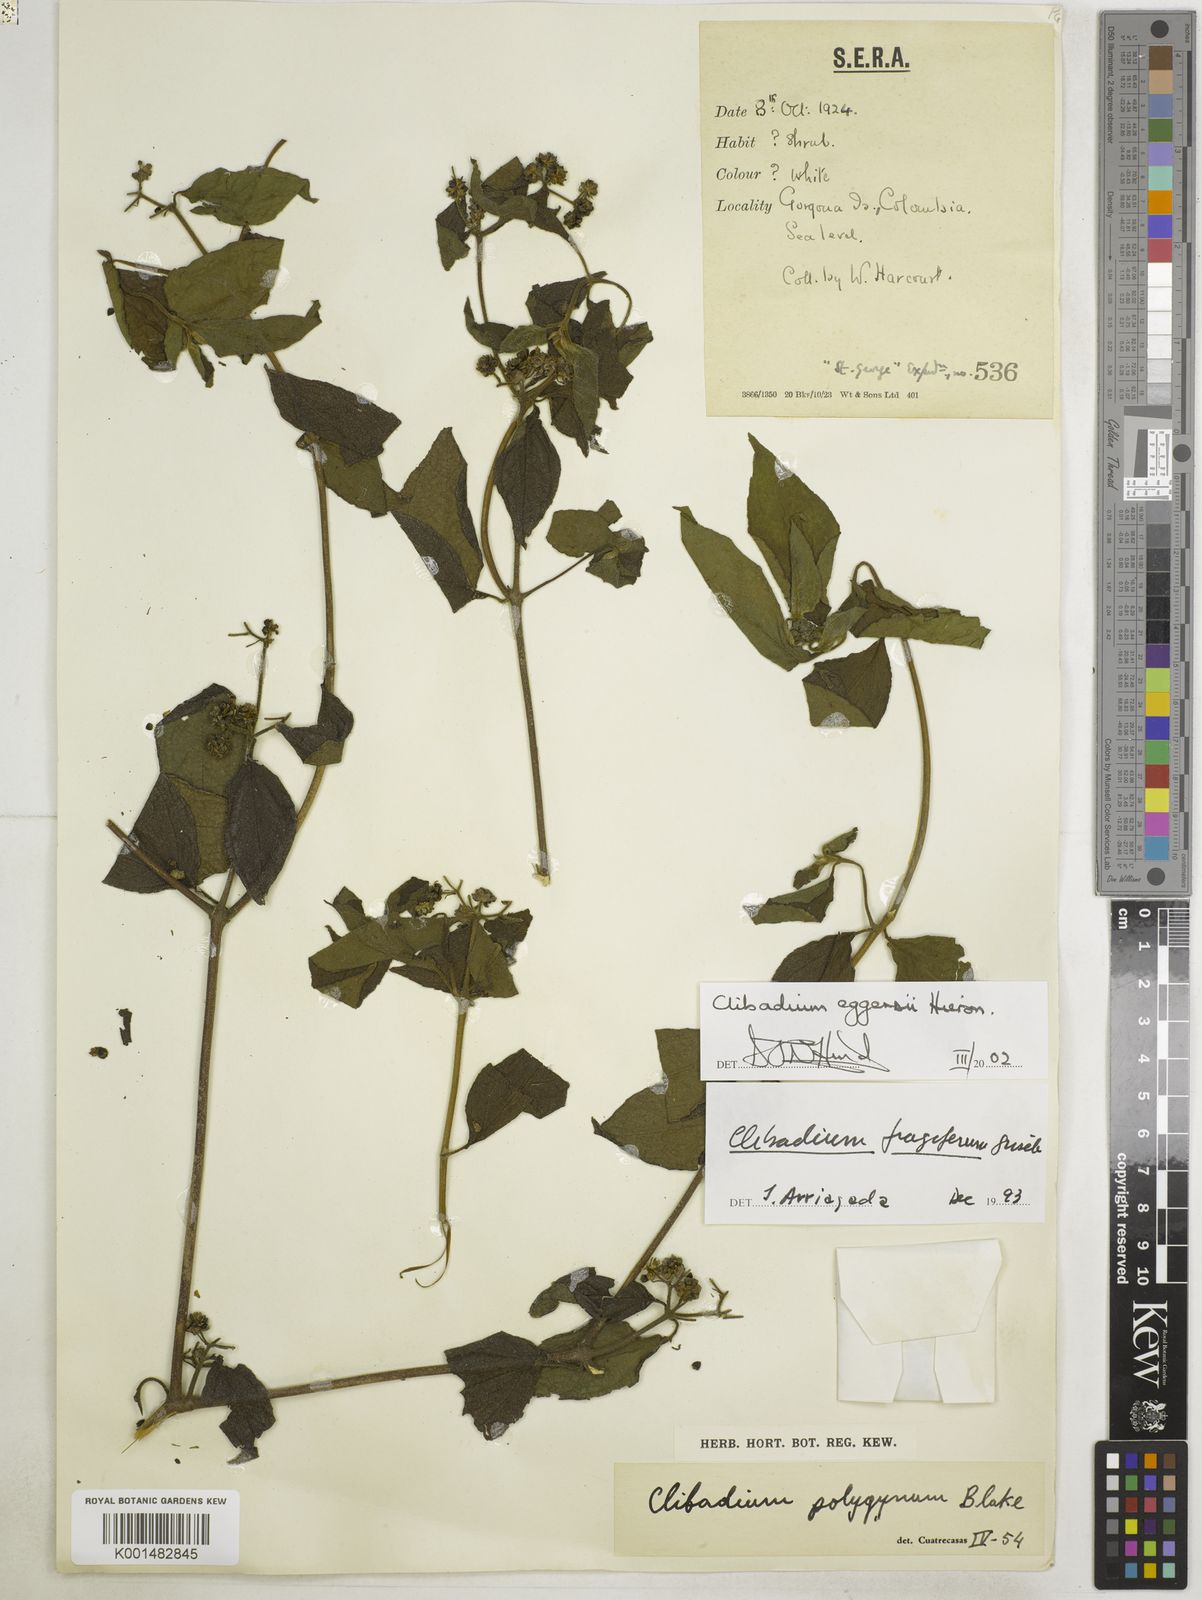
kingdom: Plantae
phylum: Tracheophyta
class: Magnoliopsida
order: Asterales
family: Asteraceae
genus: Clibadium
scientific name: Clibadium eggersii
